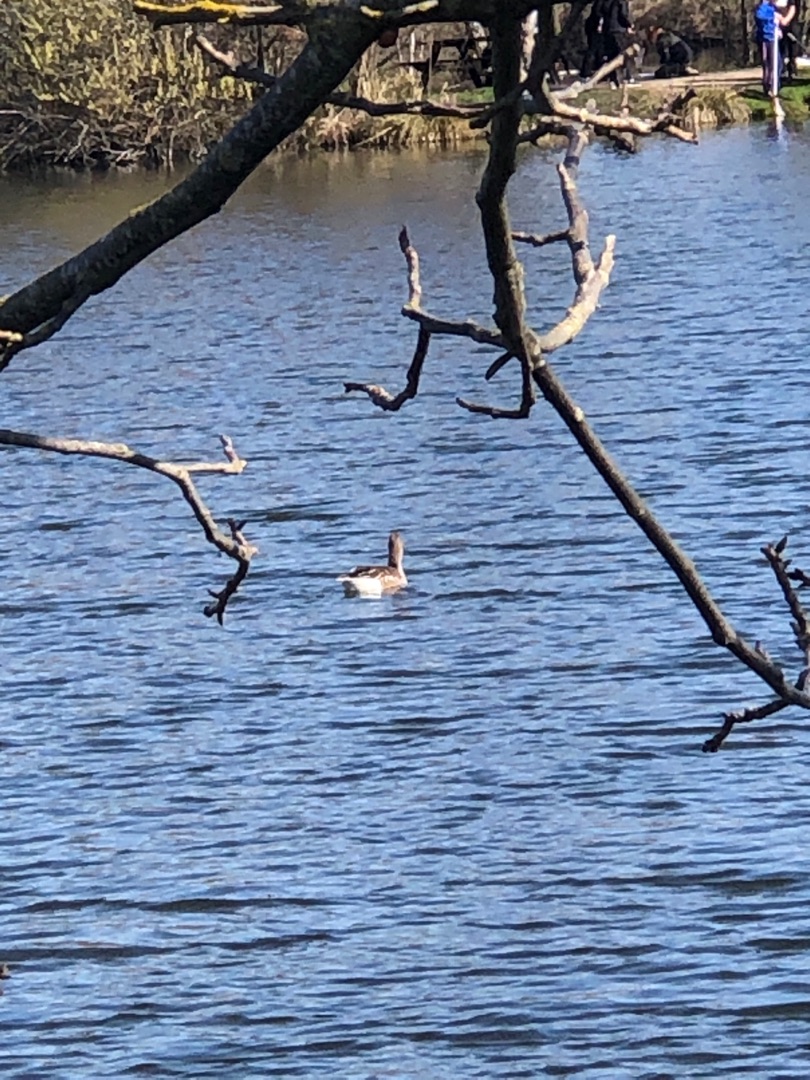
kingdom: Animalia
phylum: Chordata
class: Aves
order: Anseriformes
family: Anatidae
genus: Anser
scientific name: Anser anser
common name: Grågås
